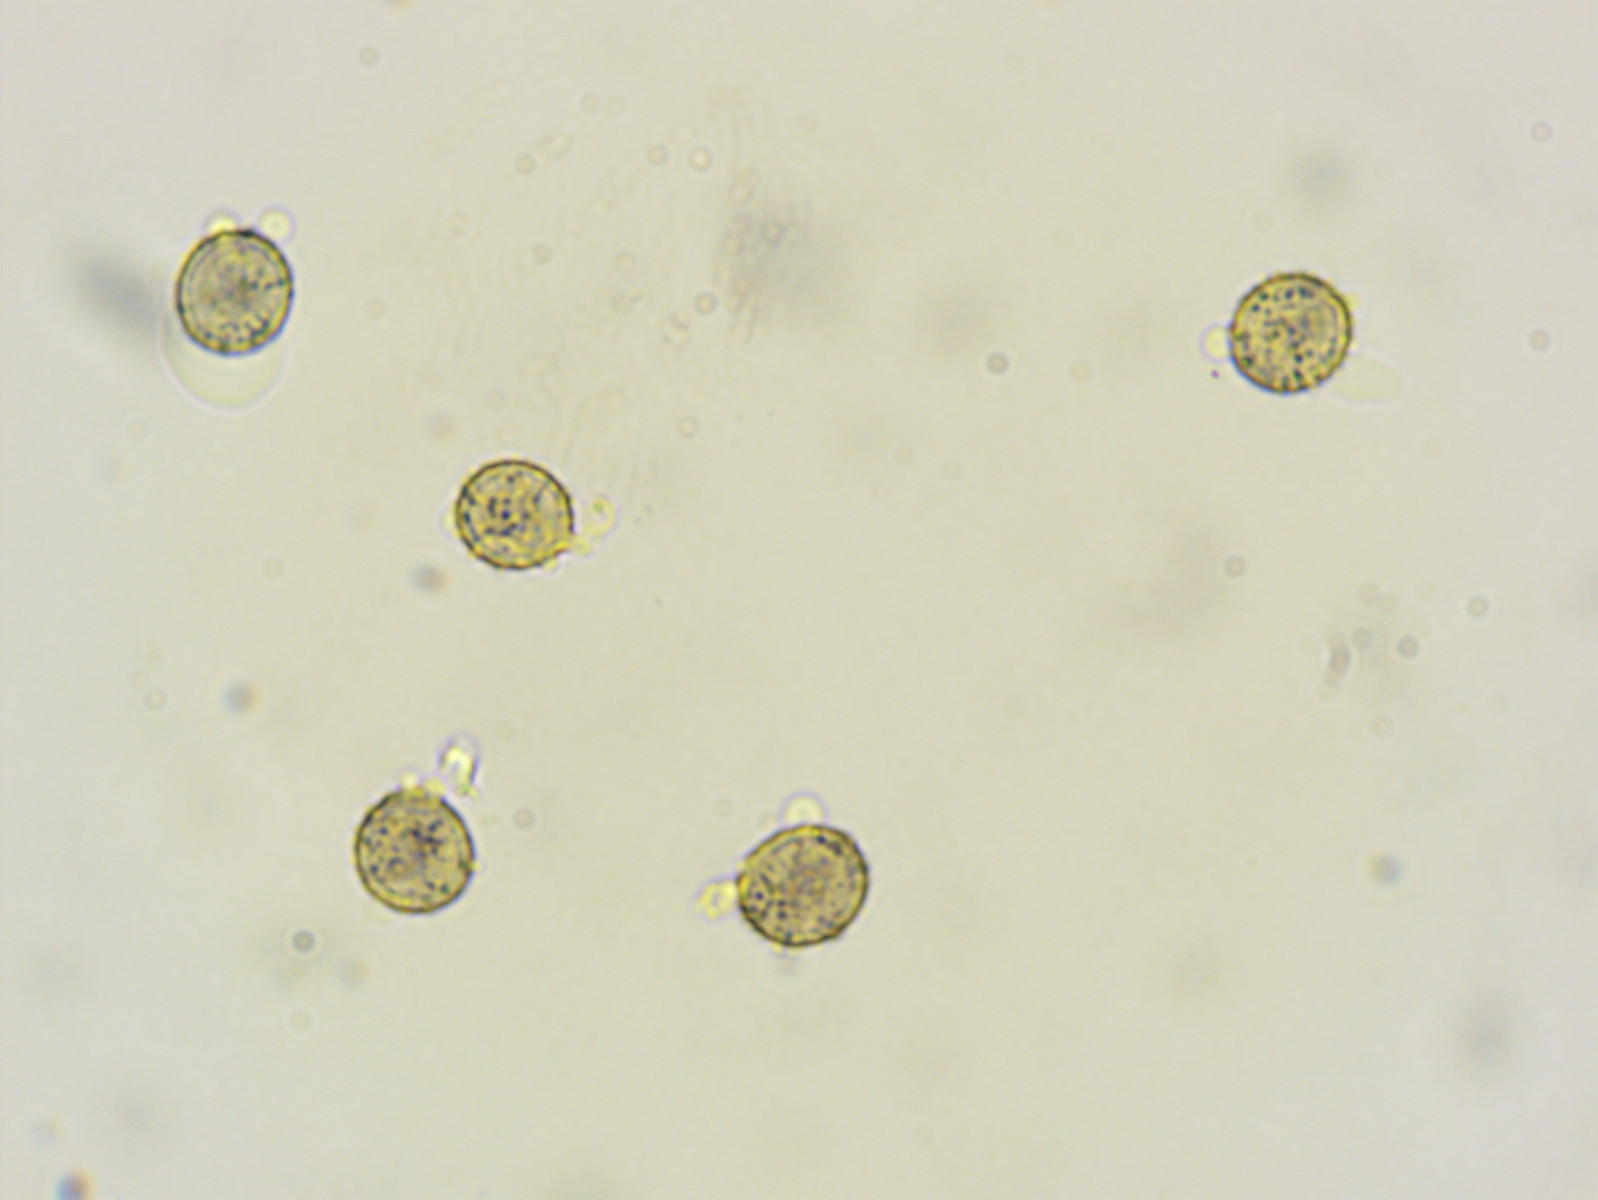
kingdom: Fungi
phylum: Basidiomycota
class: Agaricomycetes
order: Russulales
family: Russulaceae
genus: Russula
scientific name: Russula fontqueri
